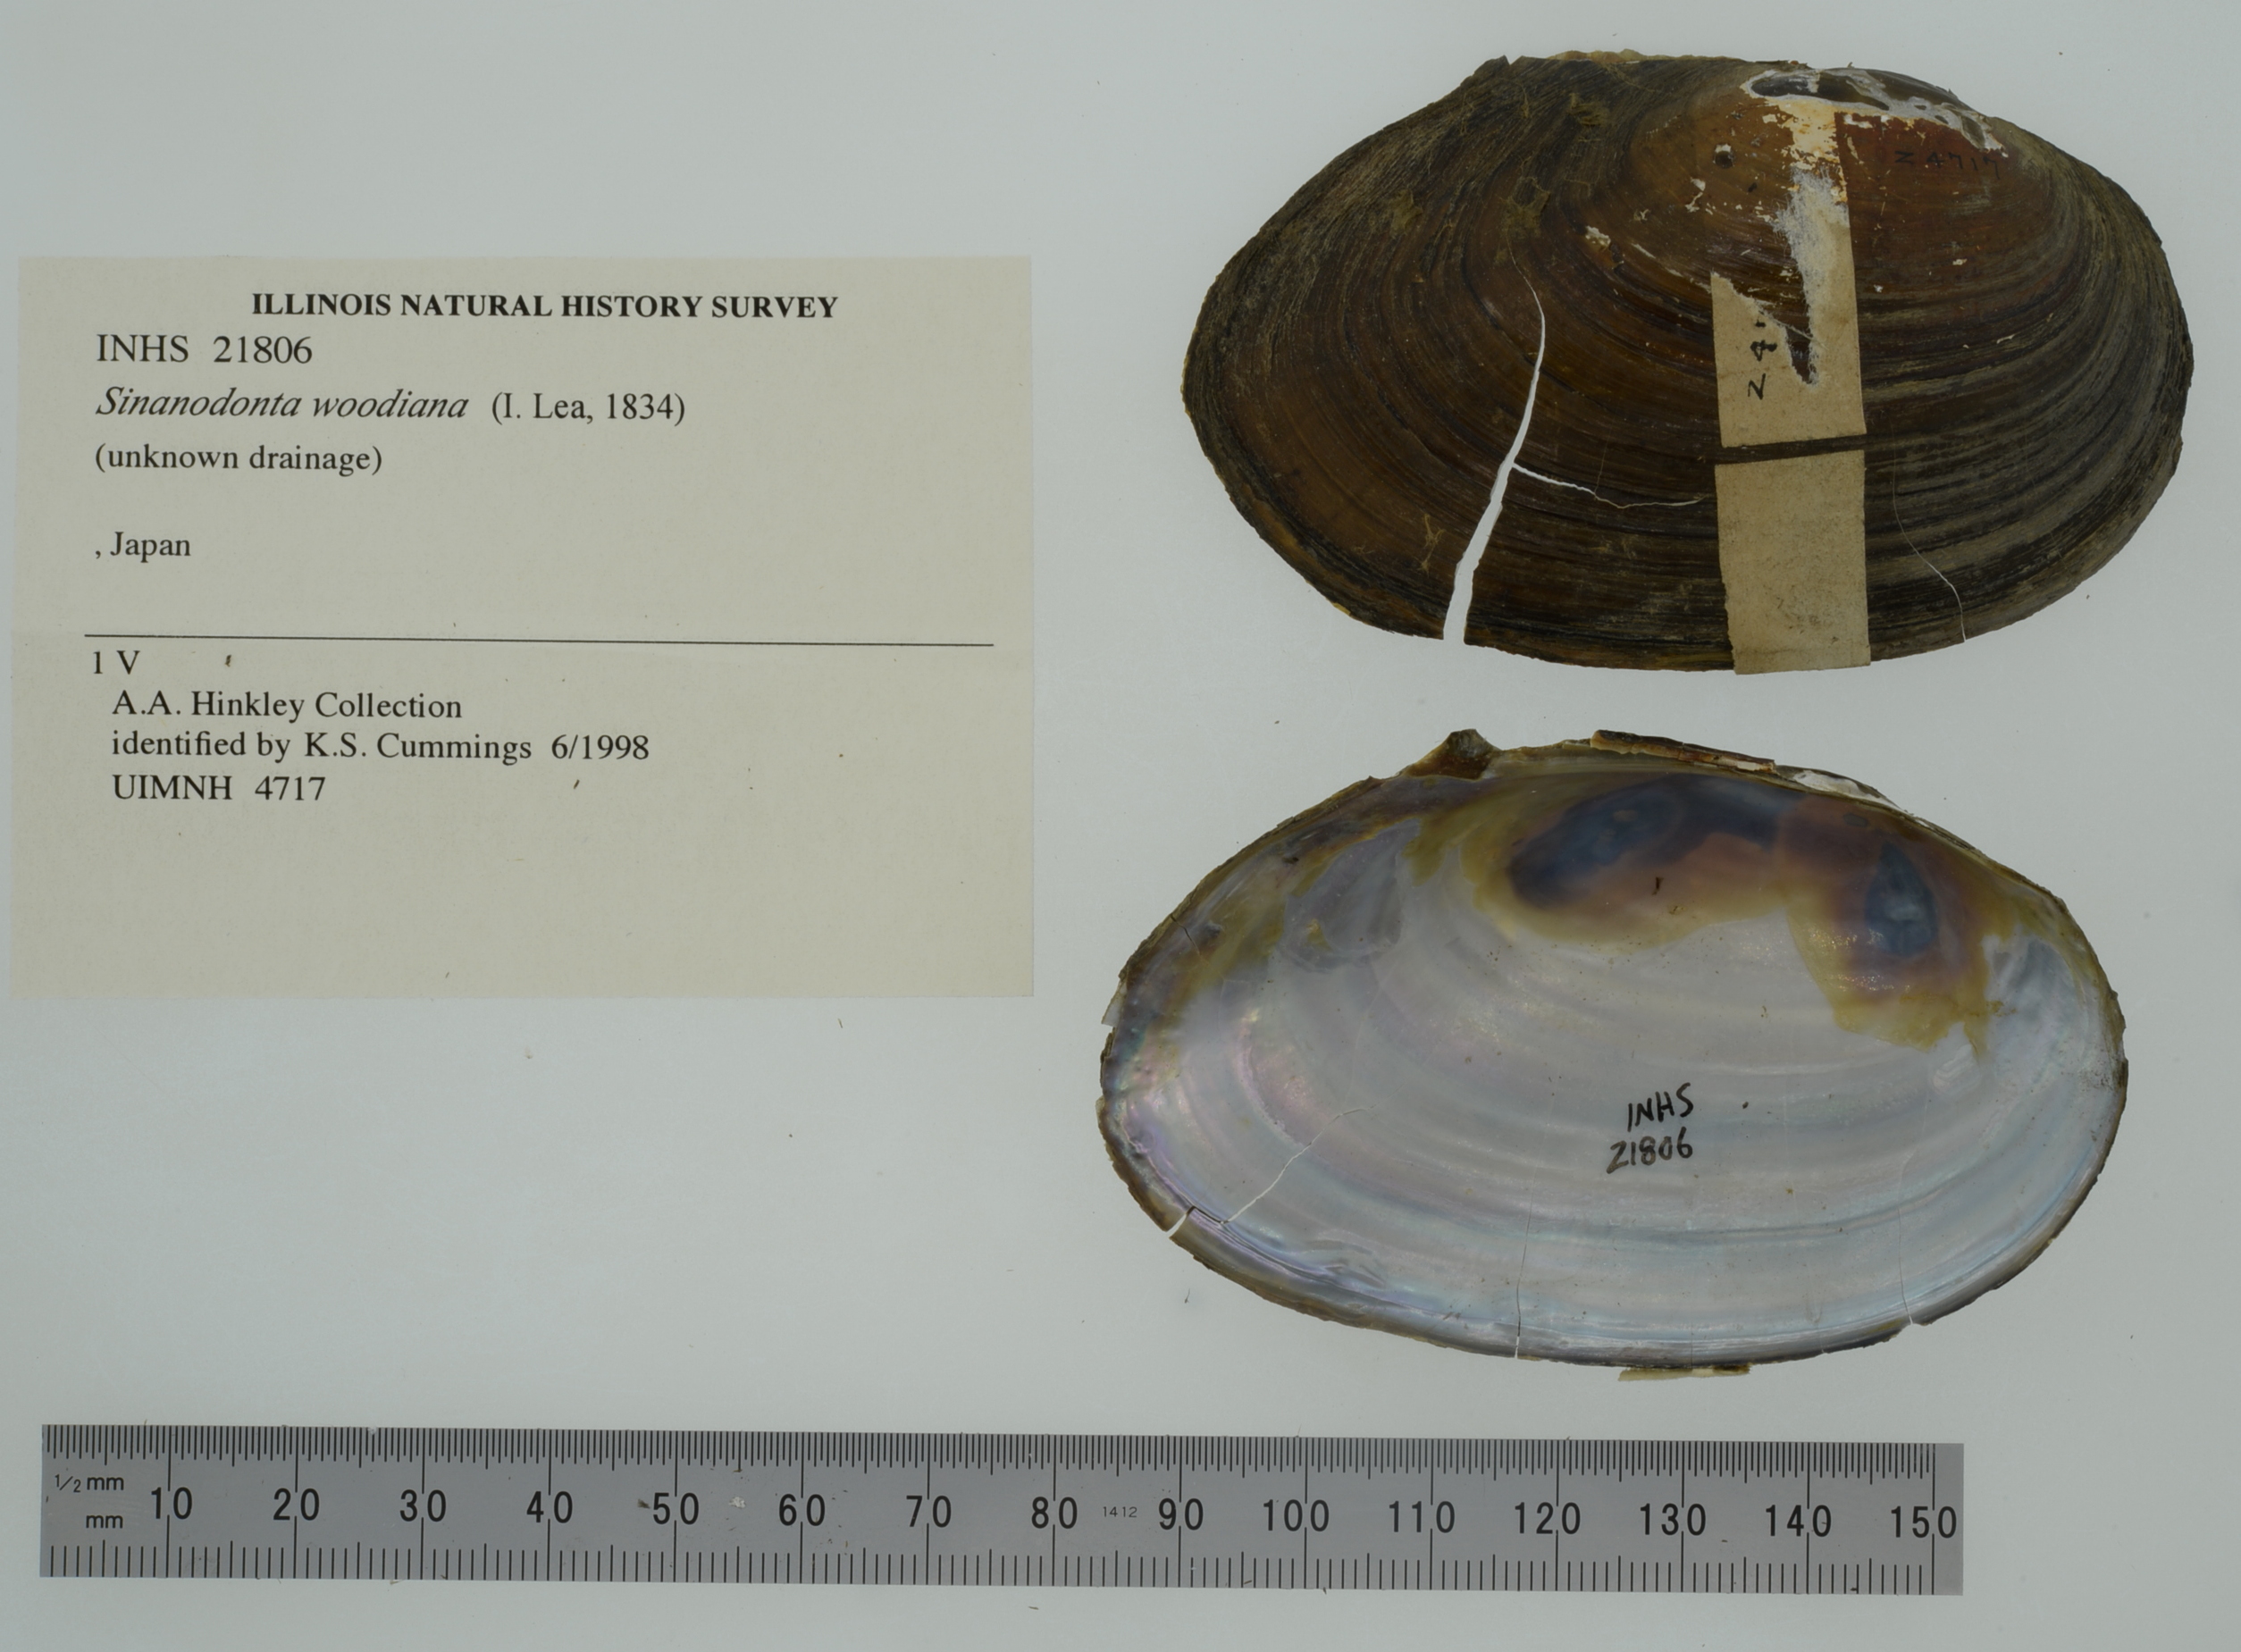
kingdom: Animalia
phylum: Mollusca
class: Bivalvia
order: Unionida
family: Unionidae
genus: Sinanodonta
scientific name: Sinanodonta woodiana
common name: Chinese pond mussel
